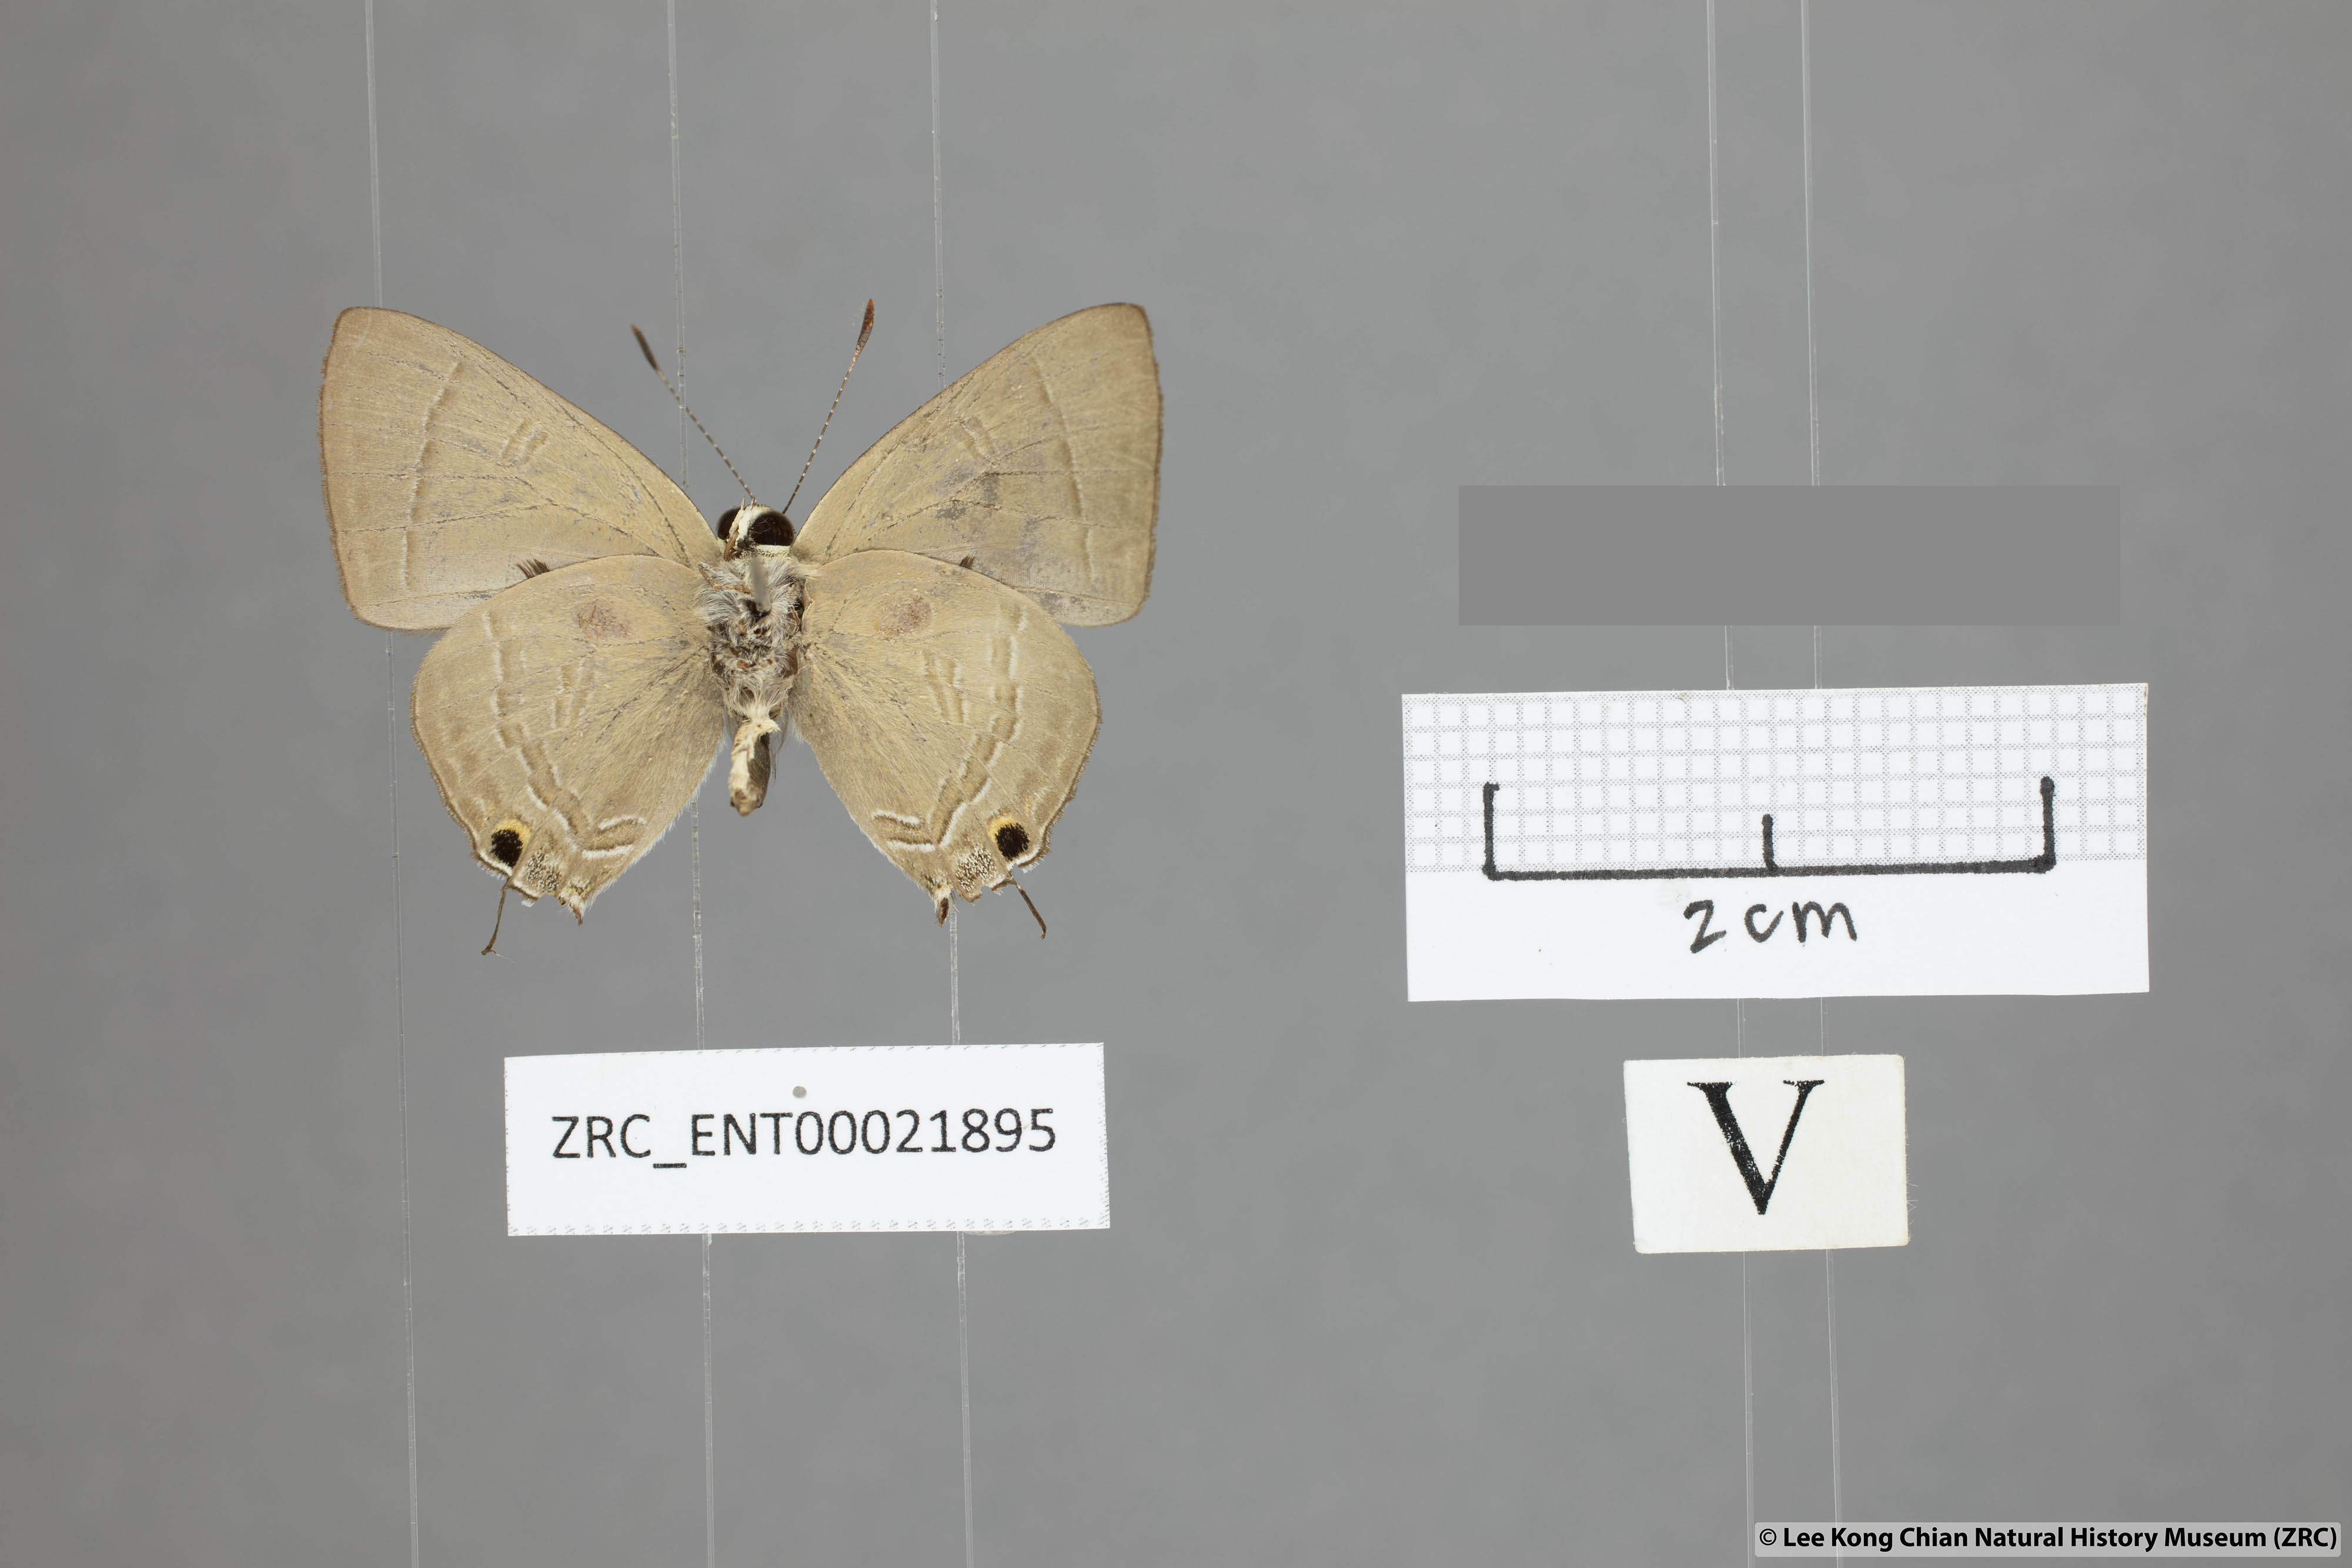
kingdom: Animalia
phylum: Arthropoda
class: Insecta
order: Lepidoptera
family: Lycaenidae
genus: Rapala
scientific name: Rapala scintilla
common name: Scarce slate flash
